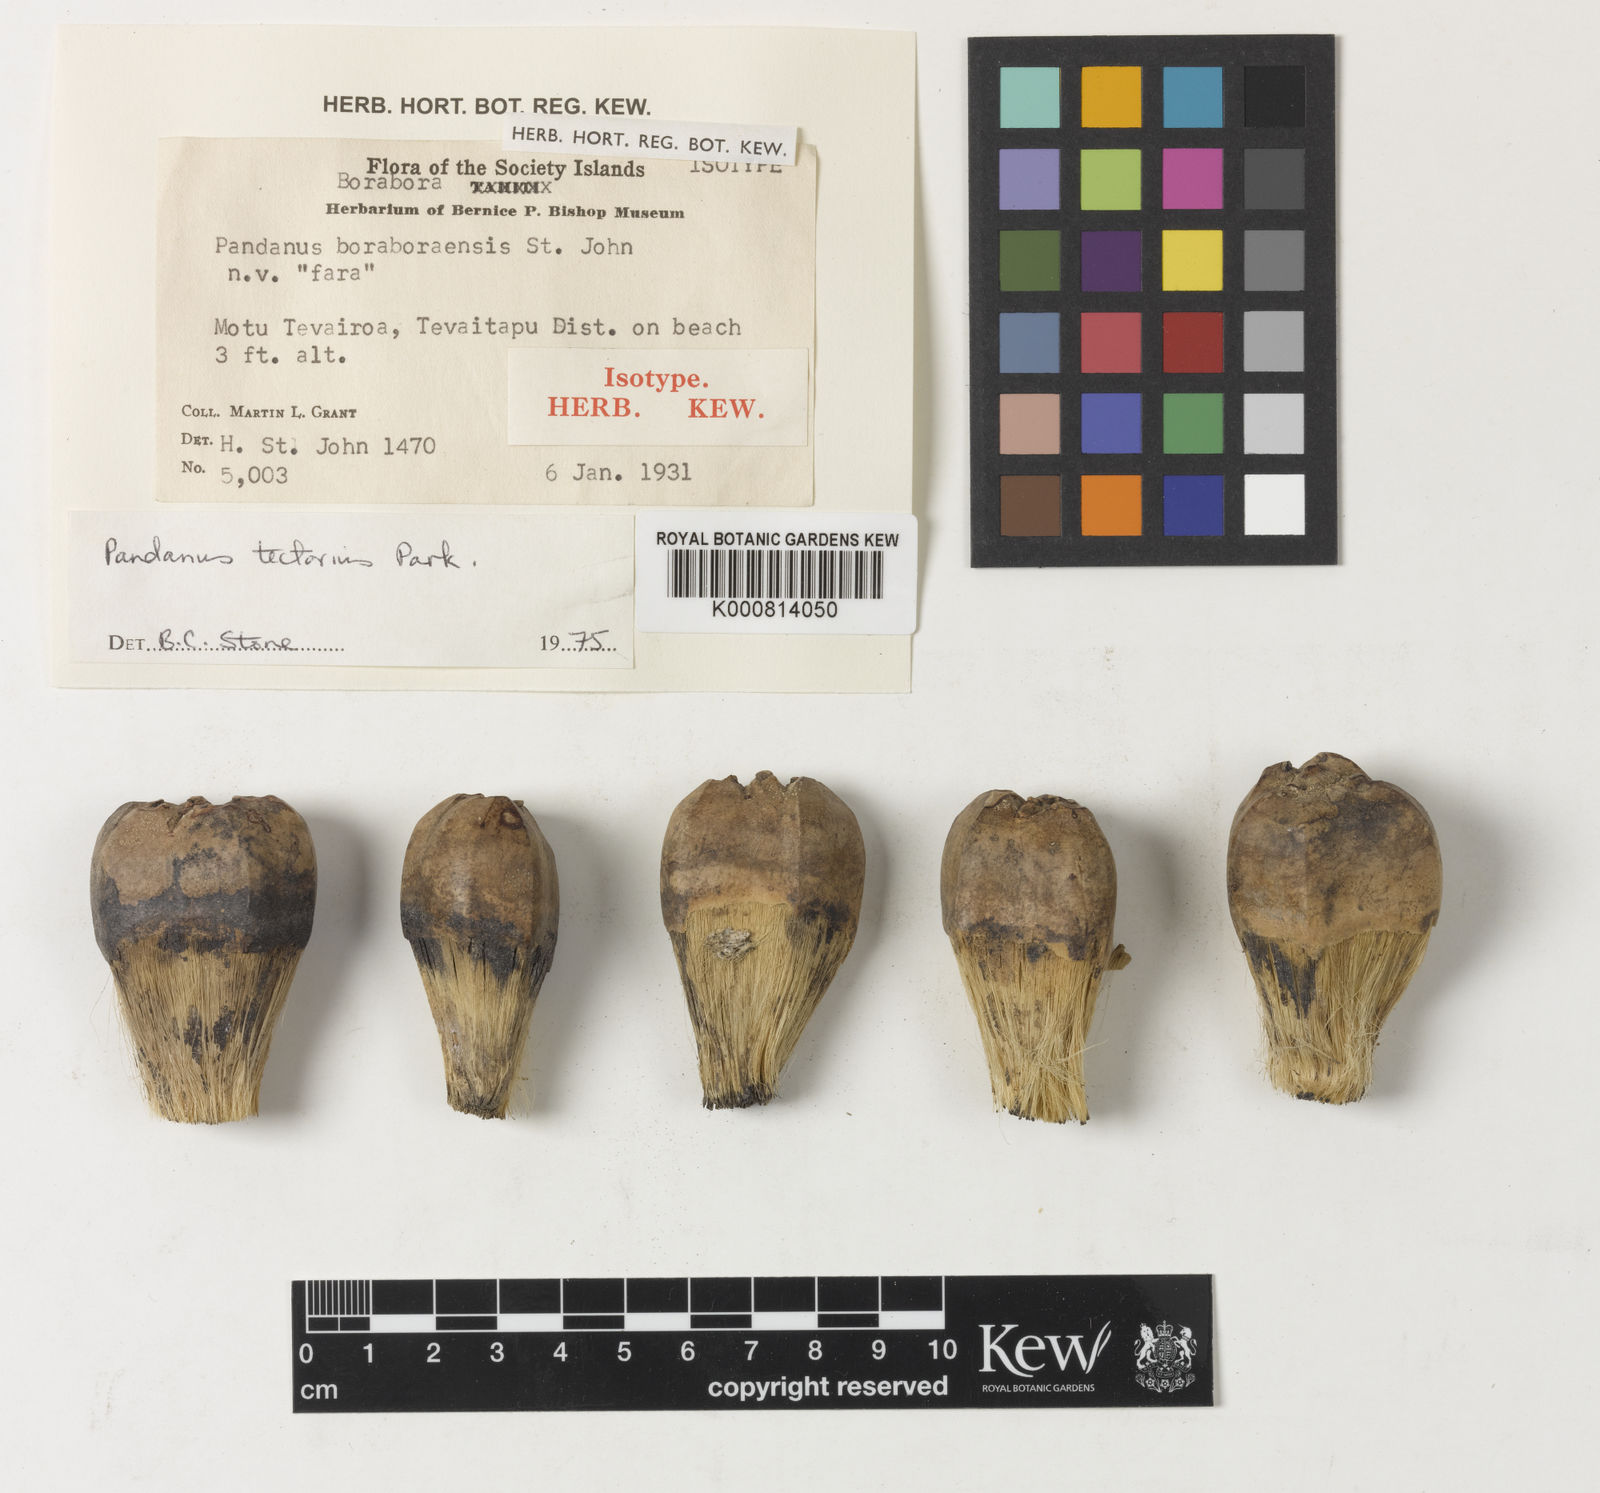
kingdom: Plantae
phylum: Tracheophyta
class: Liliopsida
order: Pandanales
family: Pandanaceae
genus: Pandanus
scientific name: Pandanus
